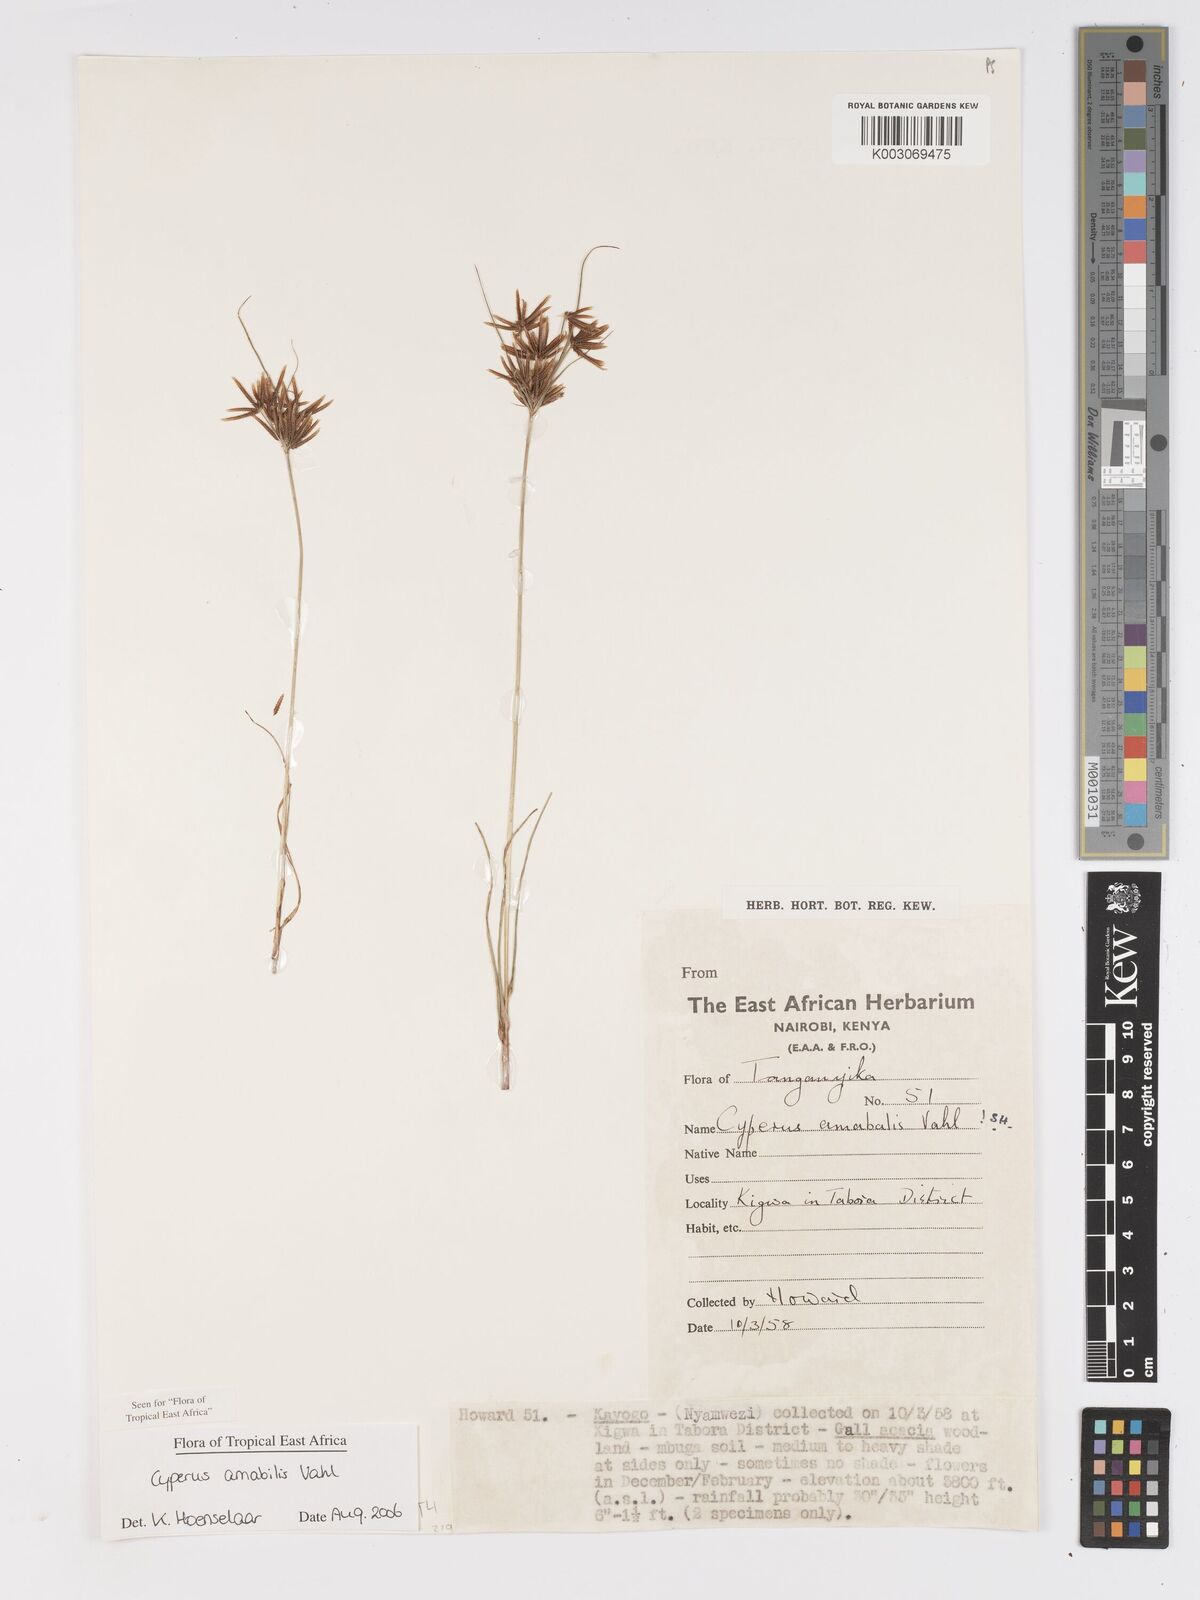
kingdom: Plantae
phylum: Tracheophyta
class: Liliopsida
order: Poales
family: Cyperaceae
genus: Cyperus
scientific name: Cyperus amabilis
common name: Foothill flat sedge
